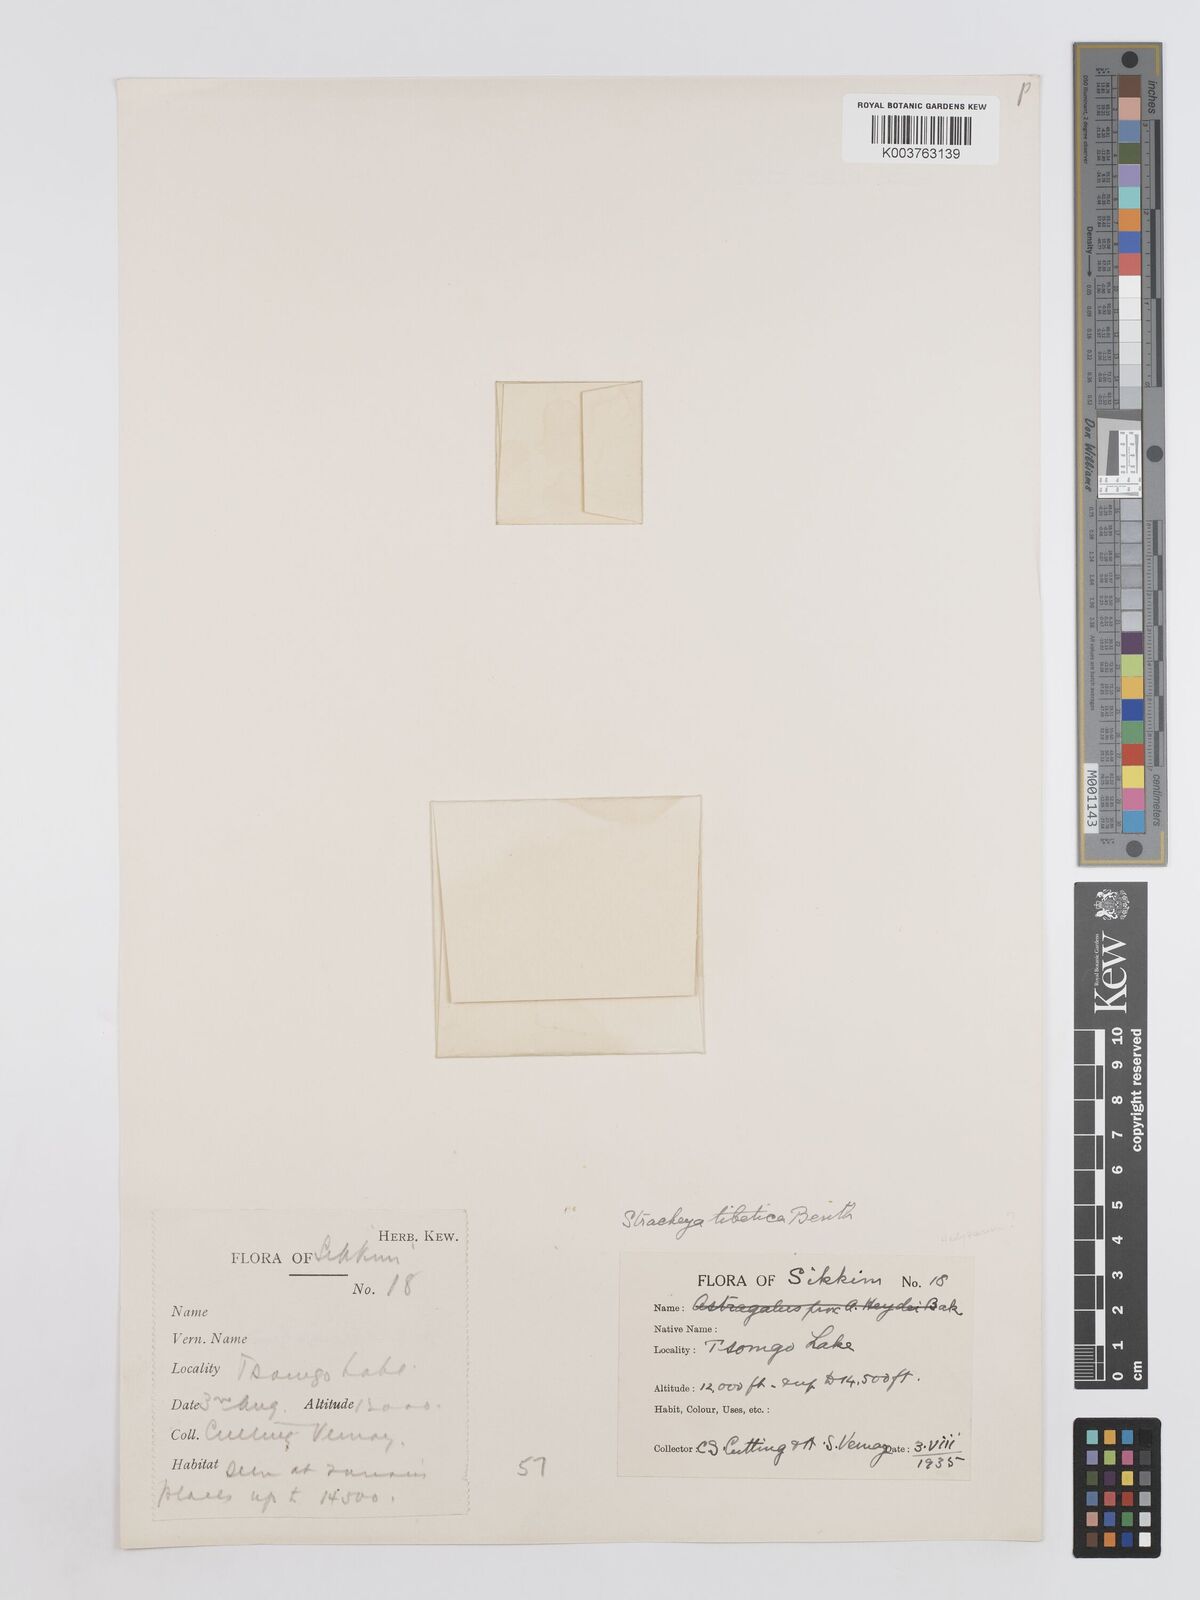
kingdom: Plantae
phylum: Tracheophyta
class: Magnoliopsida
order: Fabales
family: Fabaceae
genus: Hedysarum
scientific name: Hedysarum tibeticum
